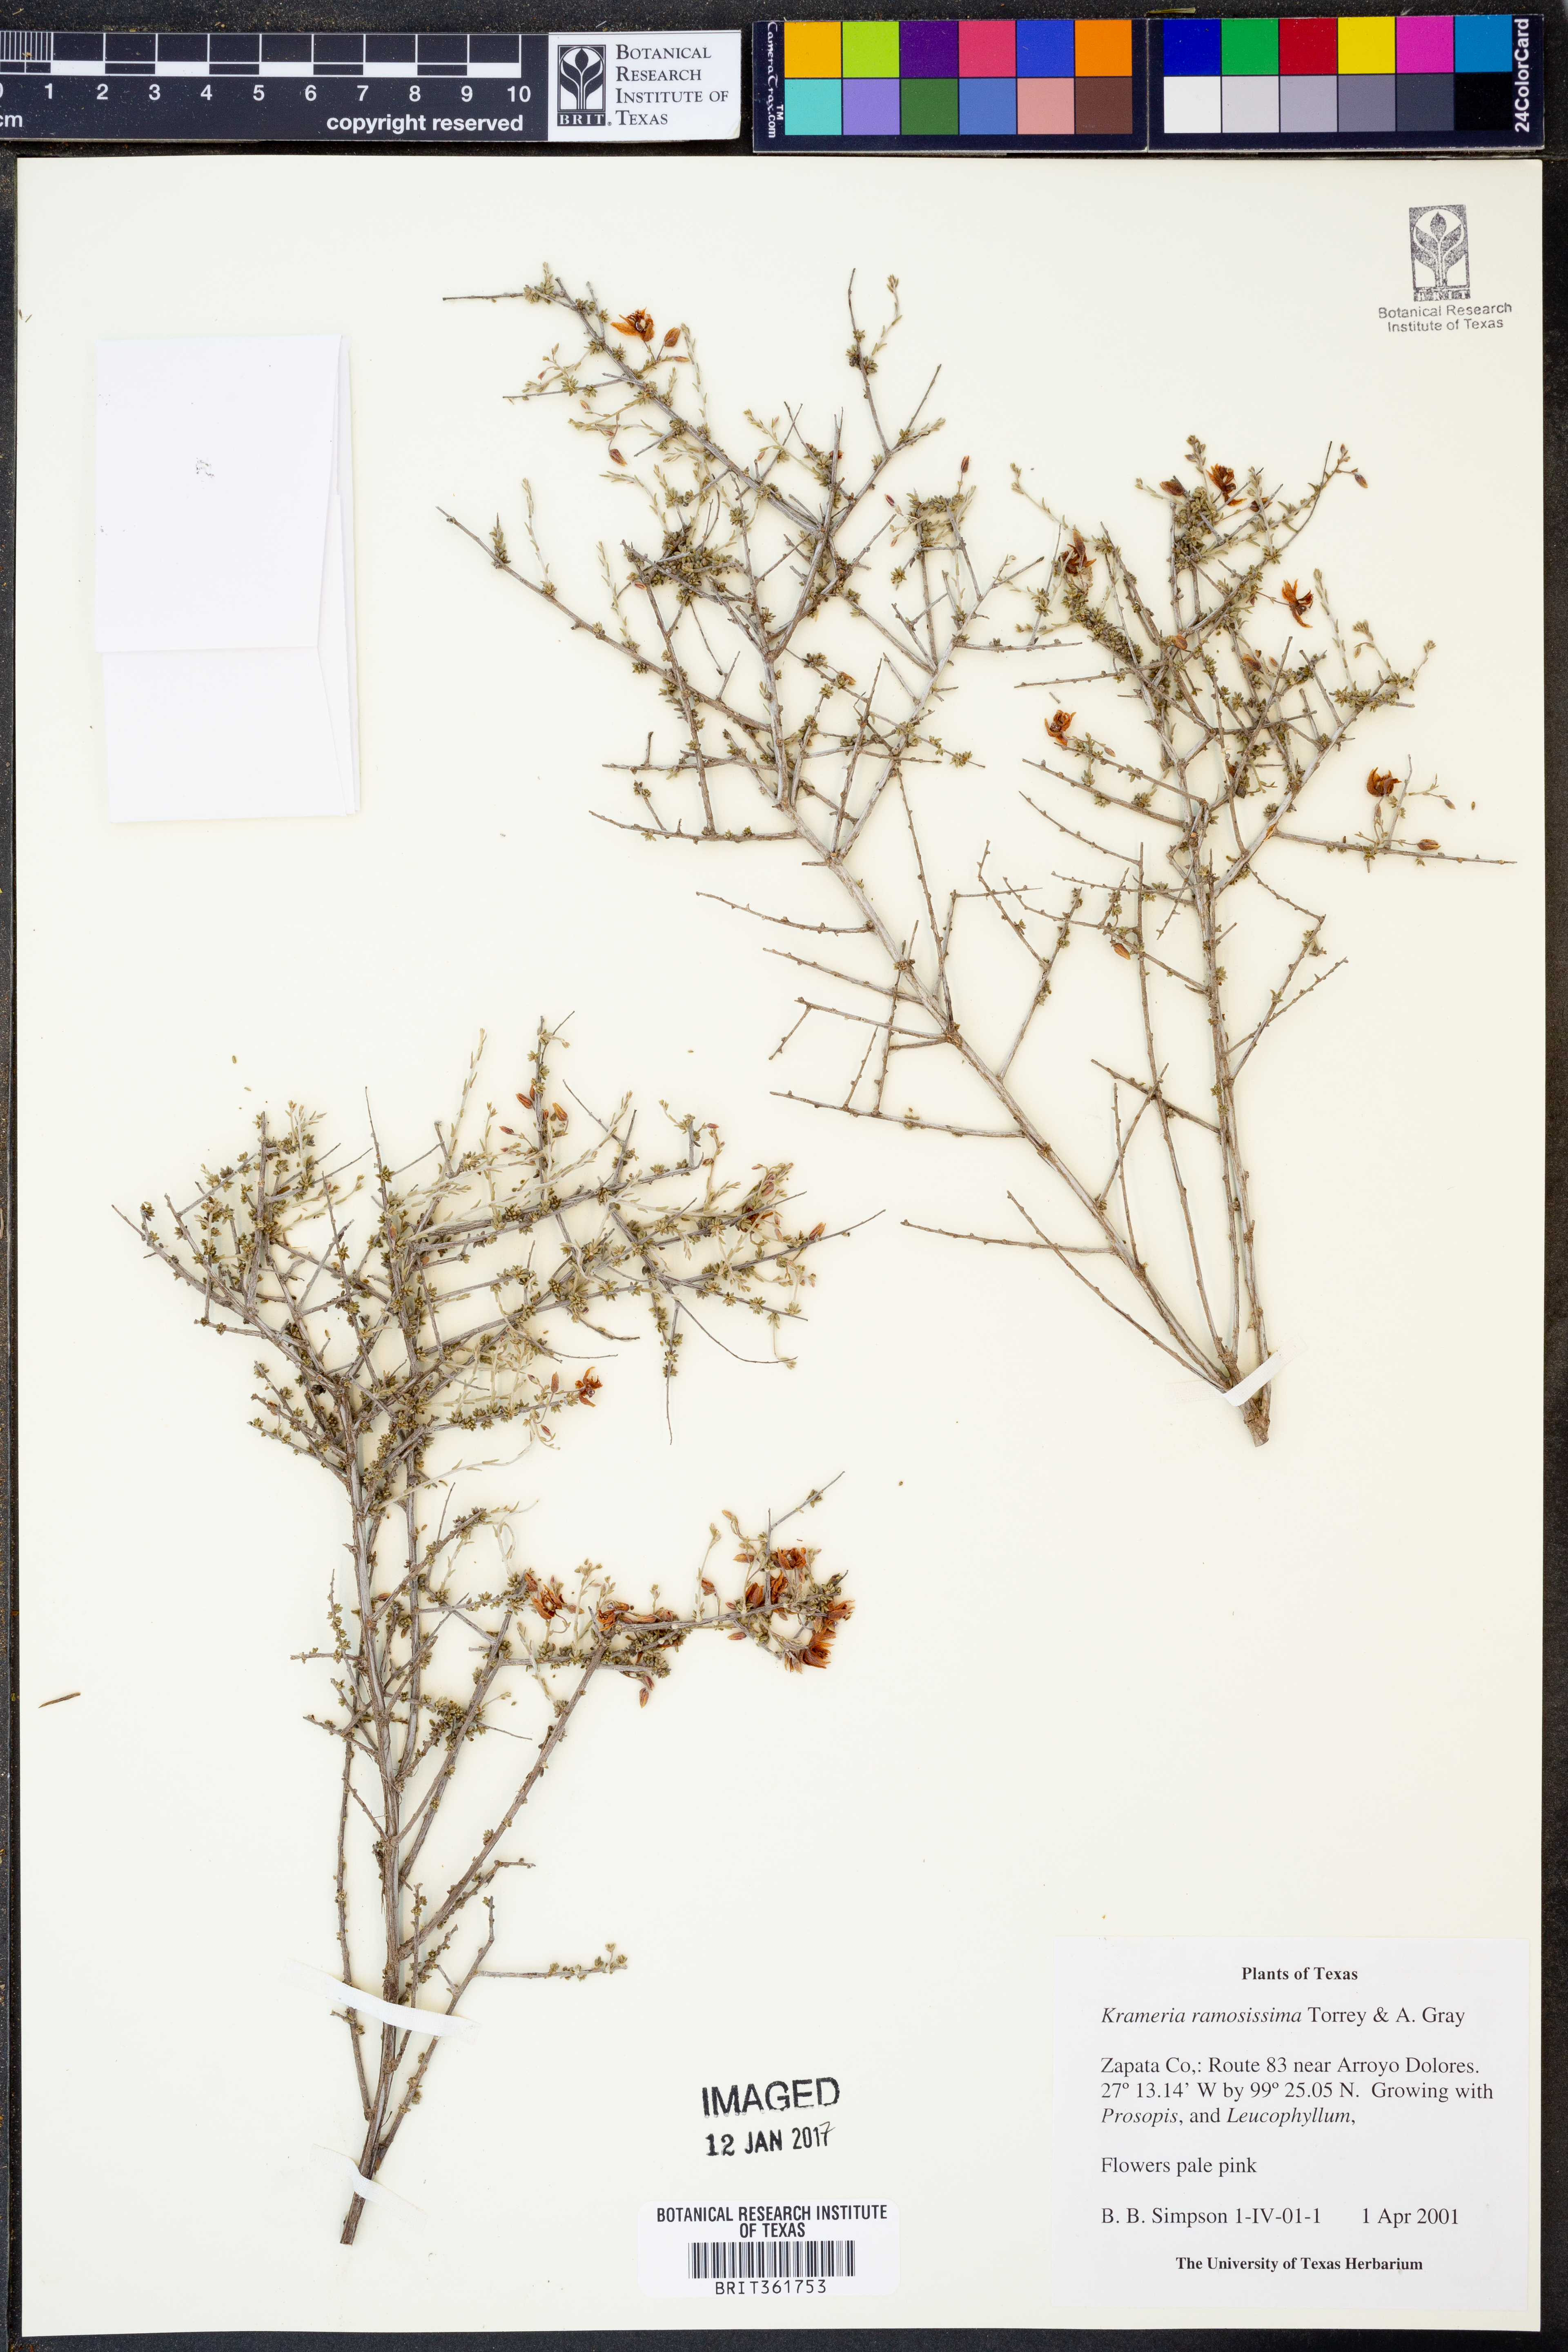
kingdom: Plantae
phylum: Tracheophyta
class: Magnoliopsida
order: Zygophyllales
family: Krameriaceae
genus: Krameria
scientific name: Krameria ramosissima
